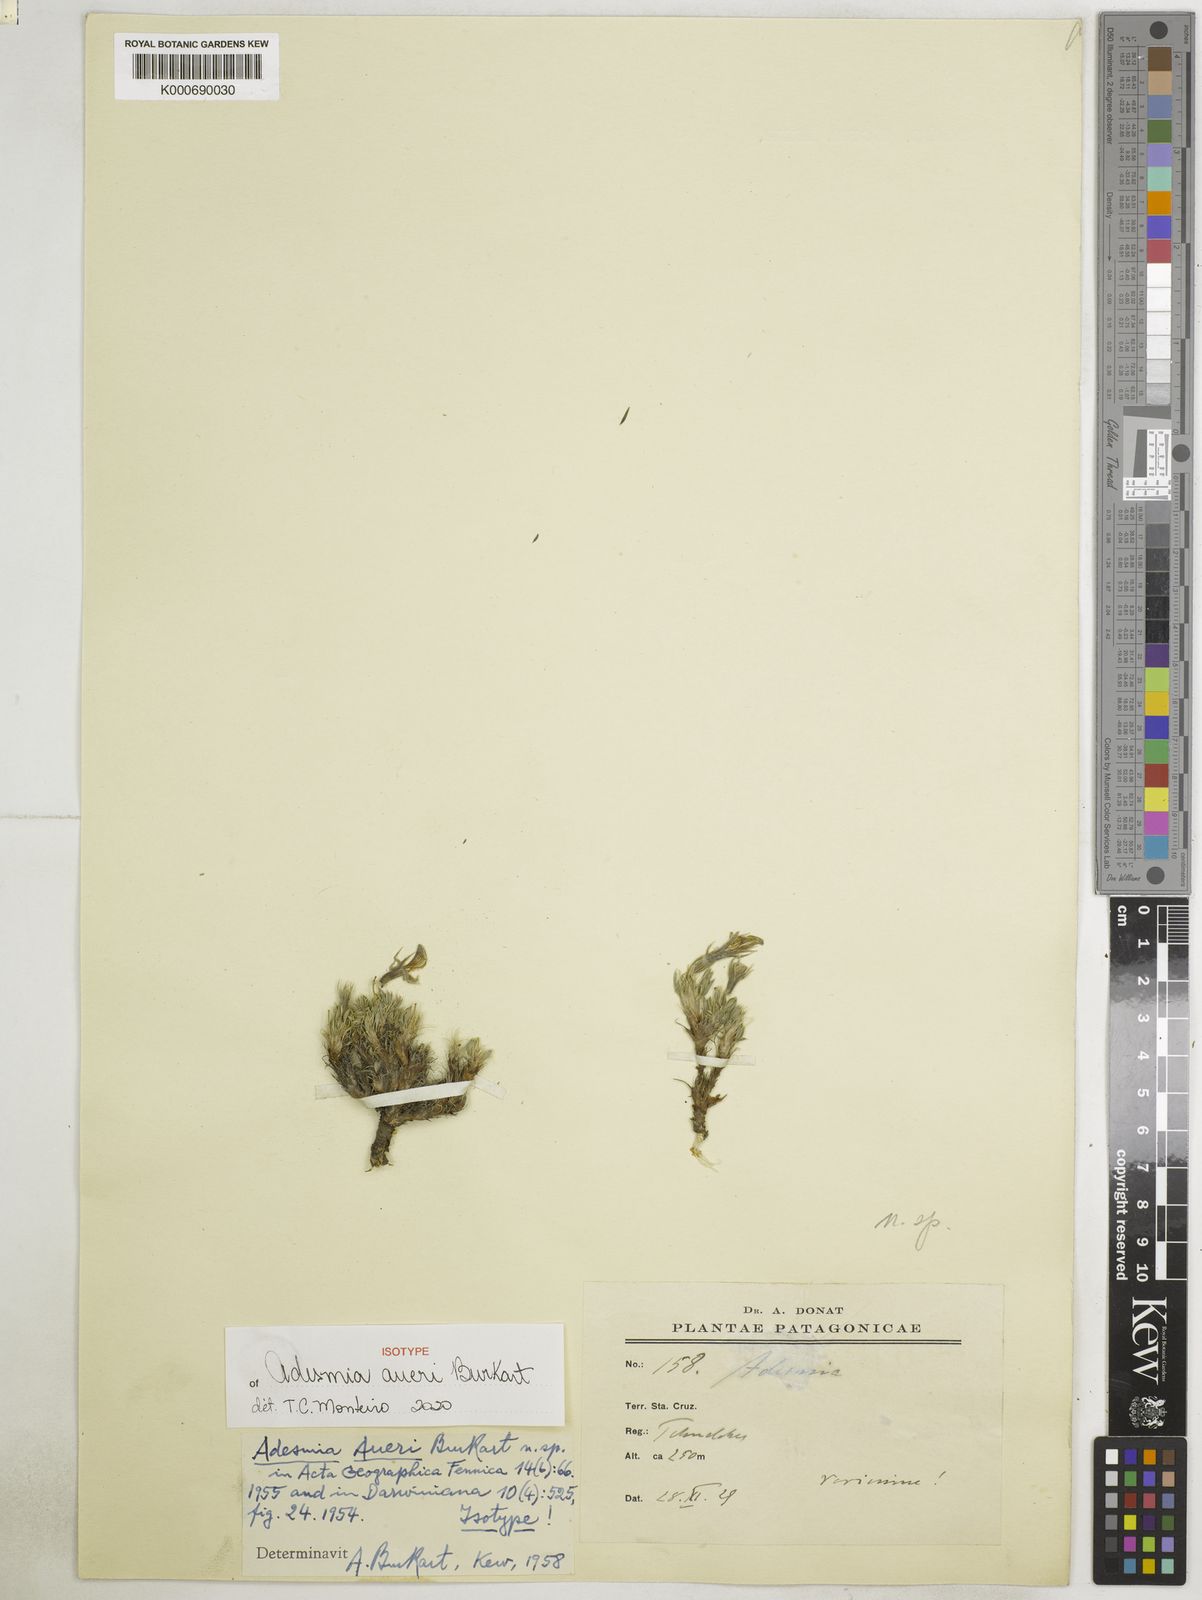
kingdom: Plantae
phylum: Tracheophyta
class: Magnoliopsida
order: Fabales
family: Fabaceae
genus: Adesmia
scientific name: Adesmia aueri
